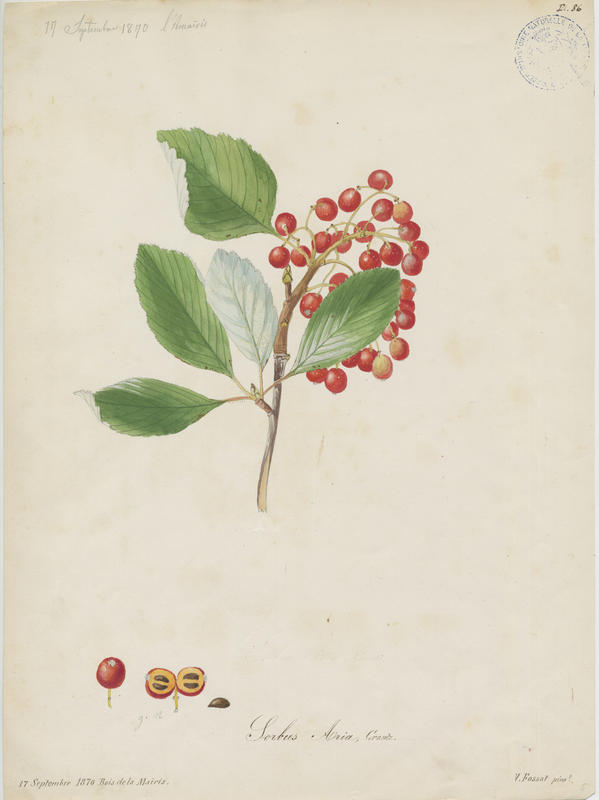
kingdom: Plantae
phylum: Tracheophyta
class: Magnoliopsida
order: Rosales
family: Rosaceae
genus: Aria
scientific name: Aria edulis
